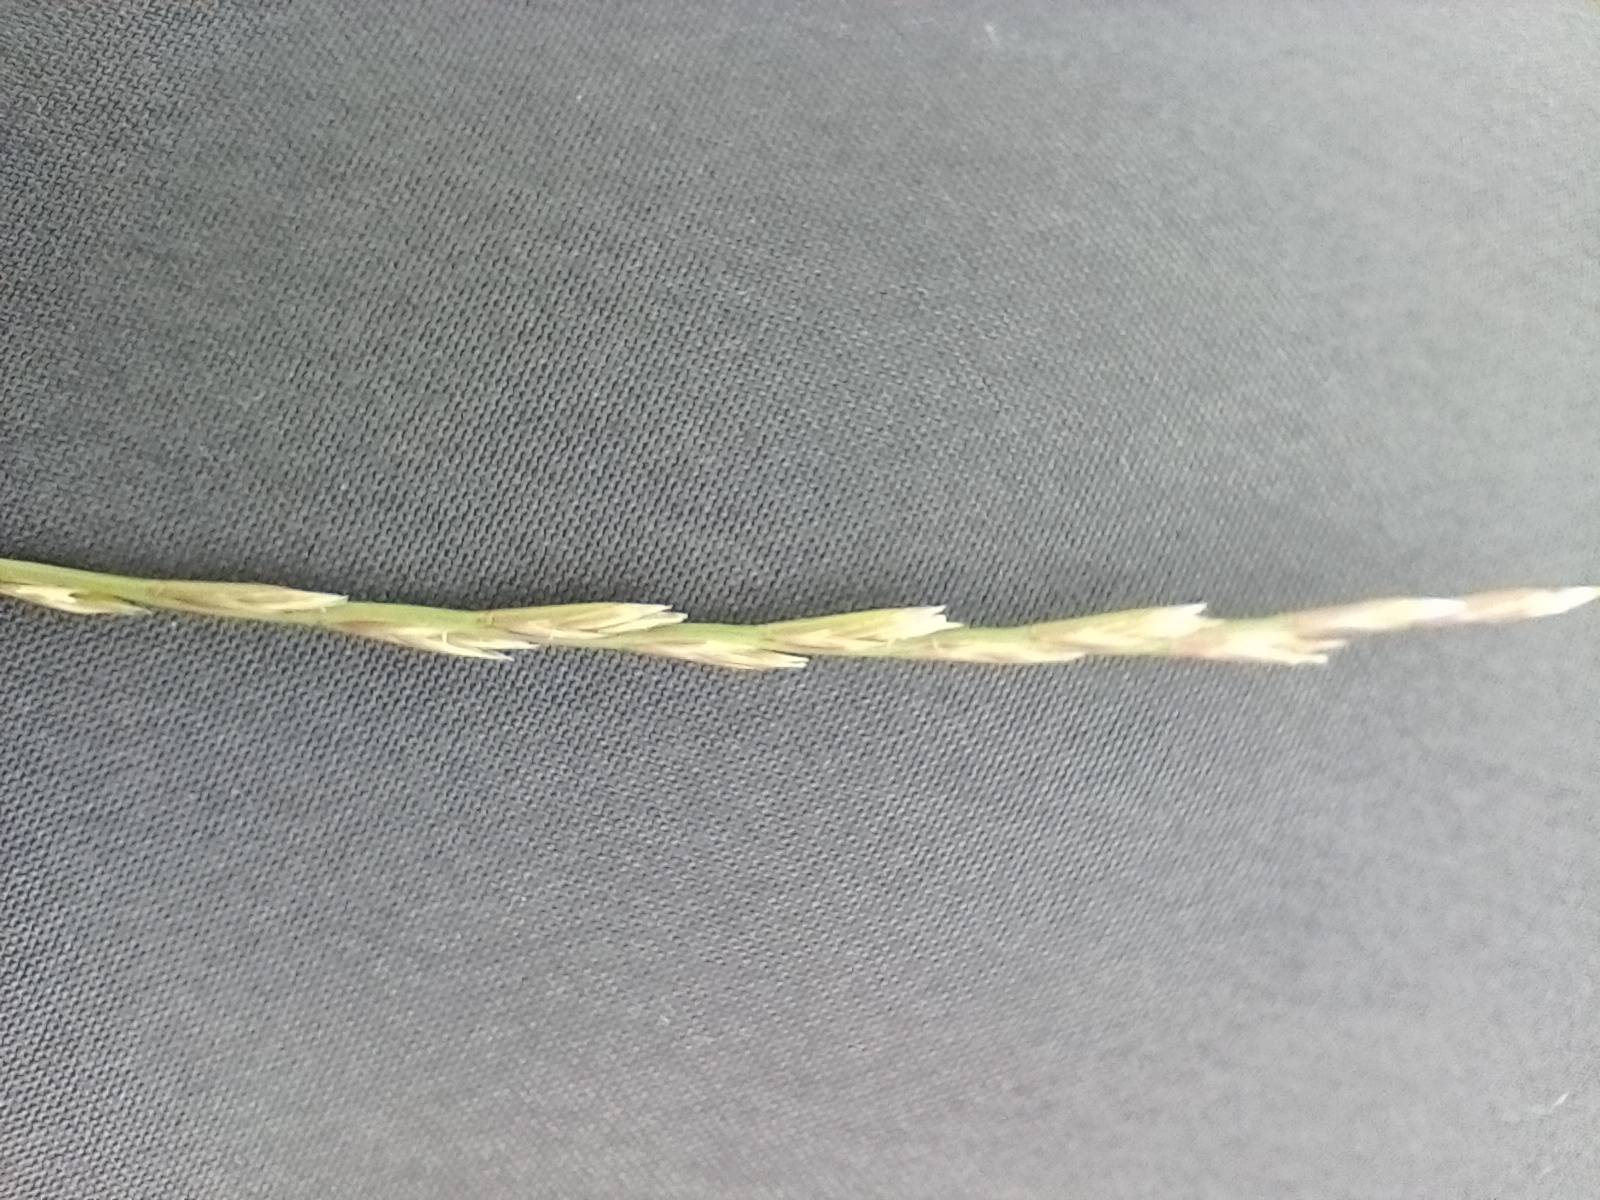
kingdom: Plantae
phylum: Tracheophyta
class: Liliopsida
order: Poales
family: Poaceae
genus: Lolium
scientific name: Lolium perenne
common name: Almindelig rajgræs
